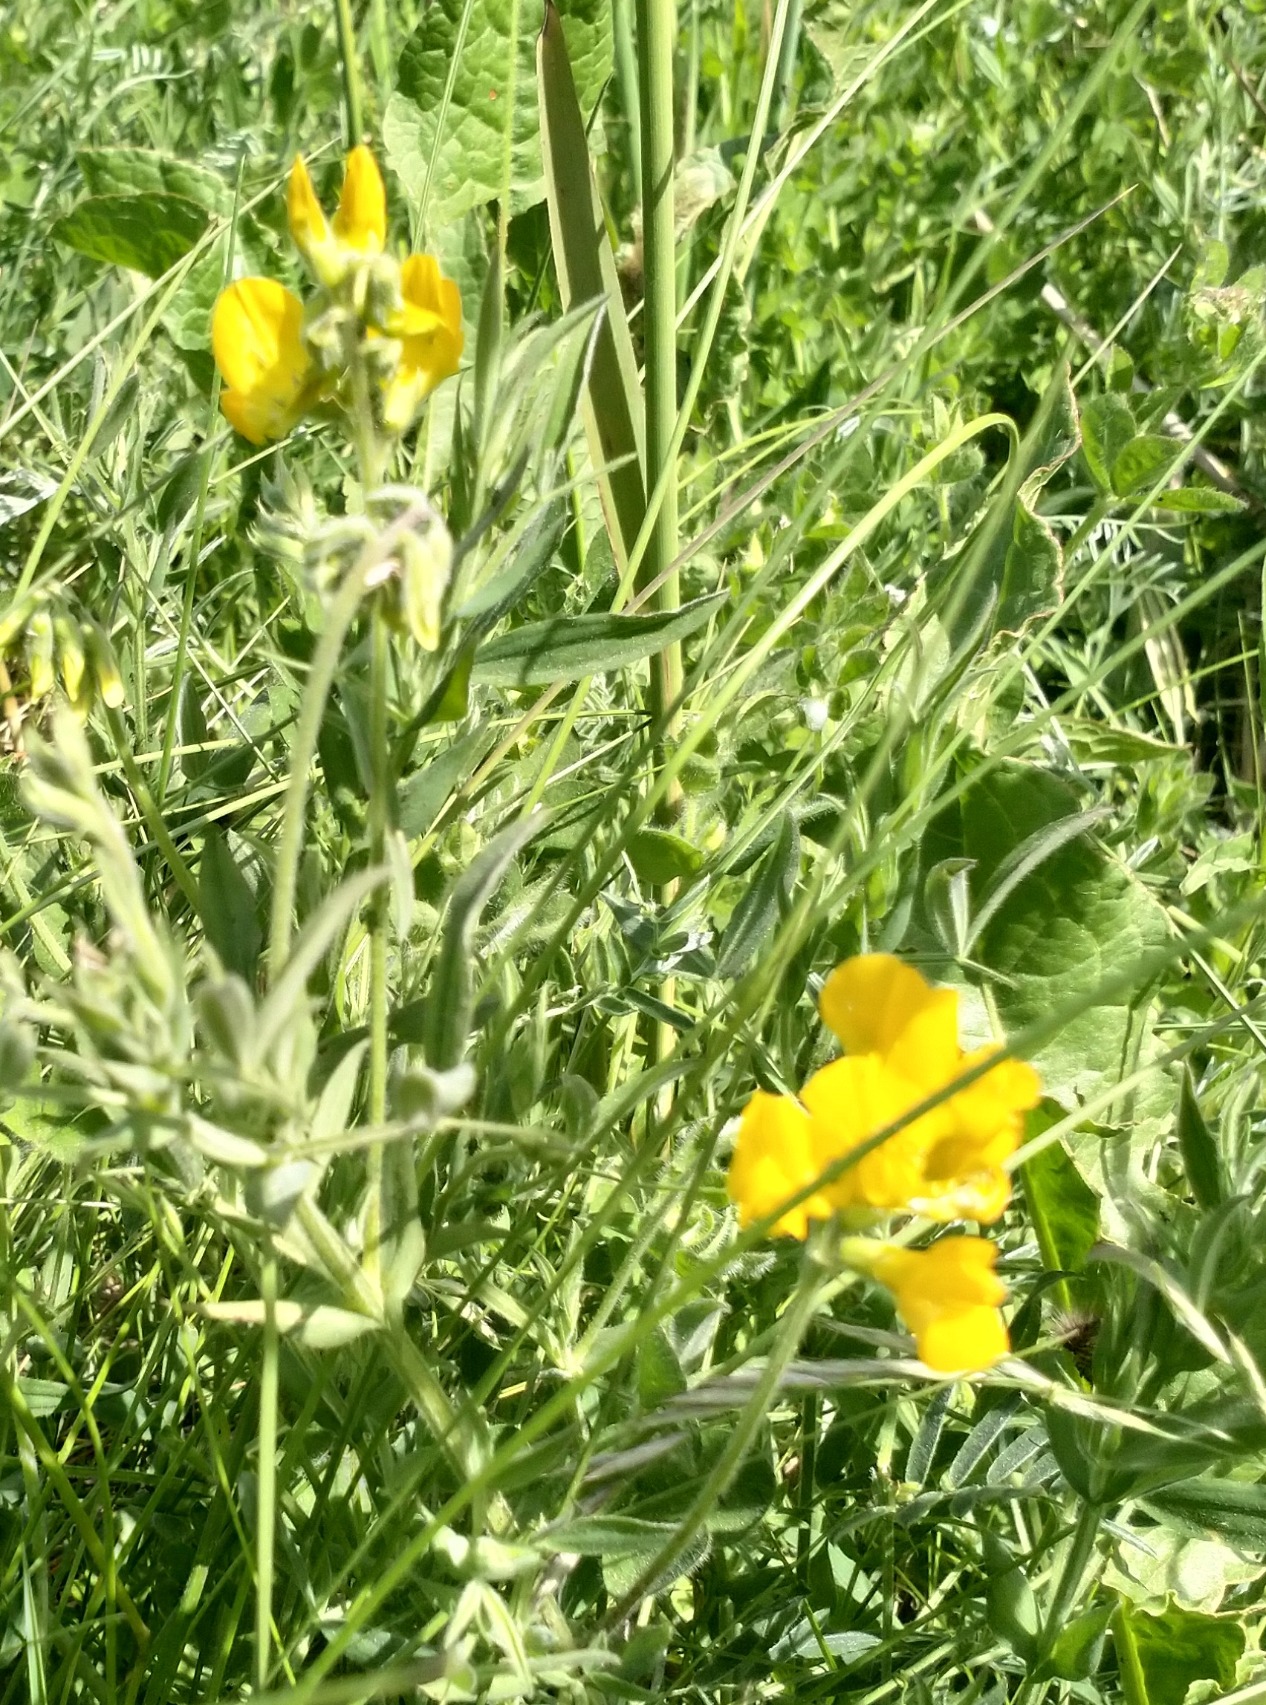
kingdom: Plantae
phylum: Tracheophyta
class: Magnoliopsida
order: Fabales
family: Fabaceae
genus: Lathyrus
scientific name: Lathyrus pratensis
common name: Gul fladbælg
